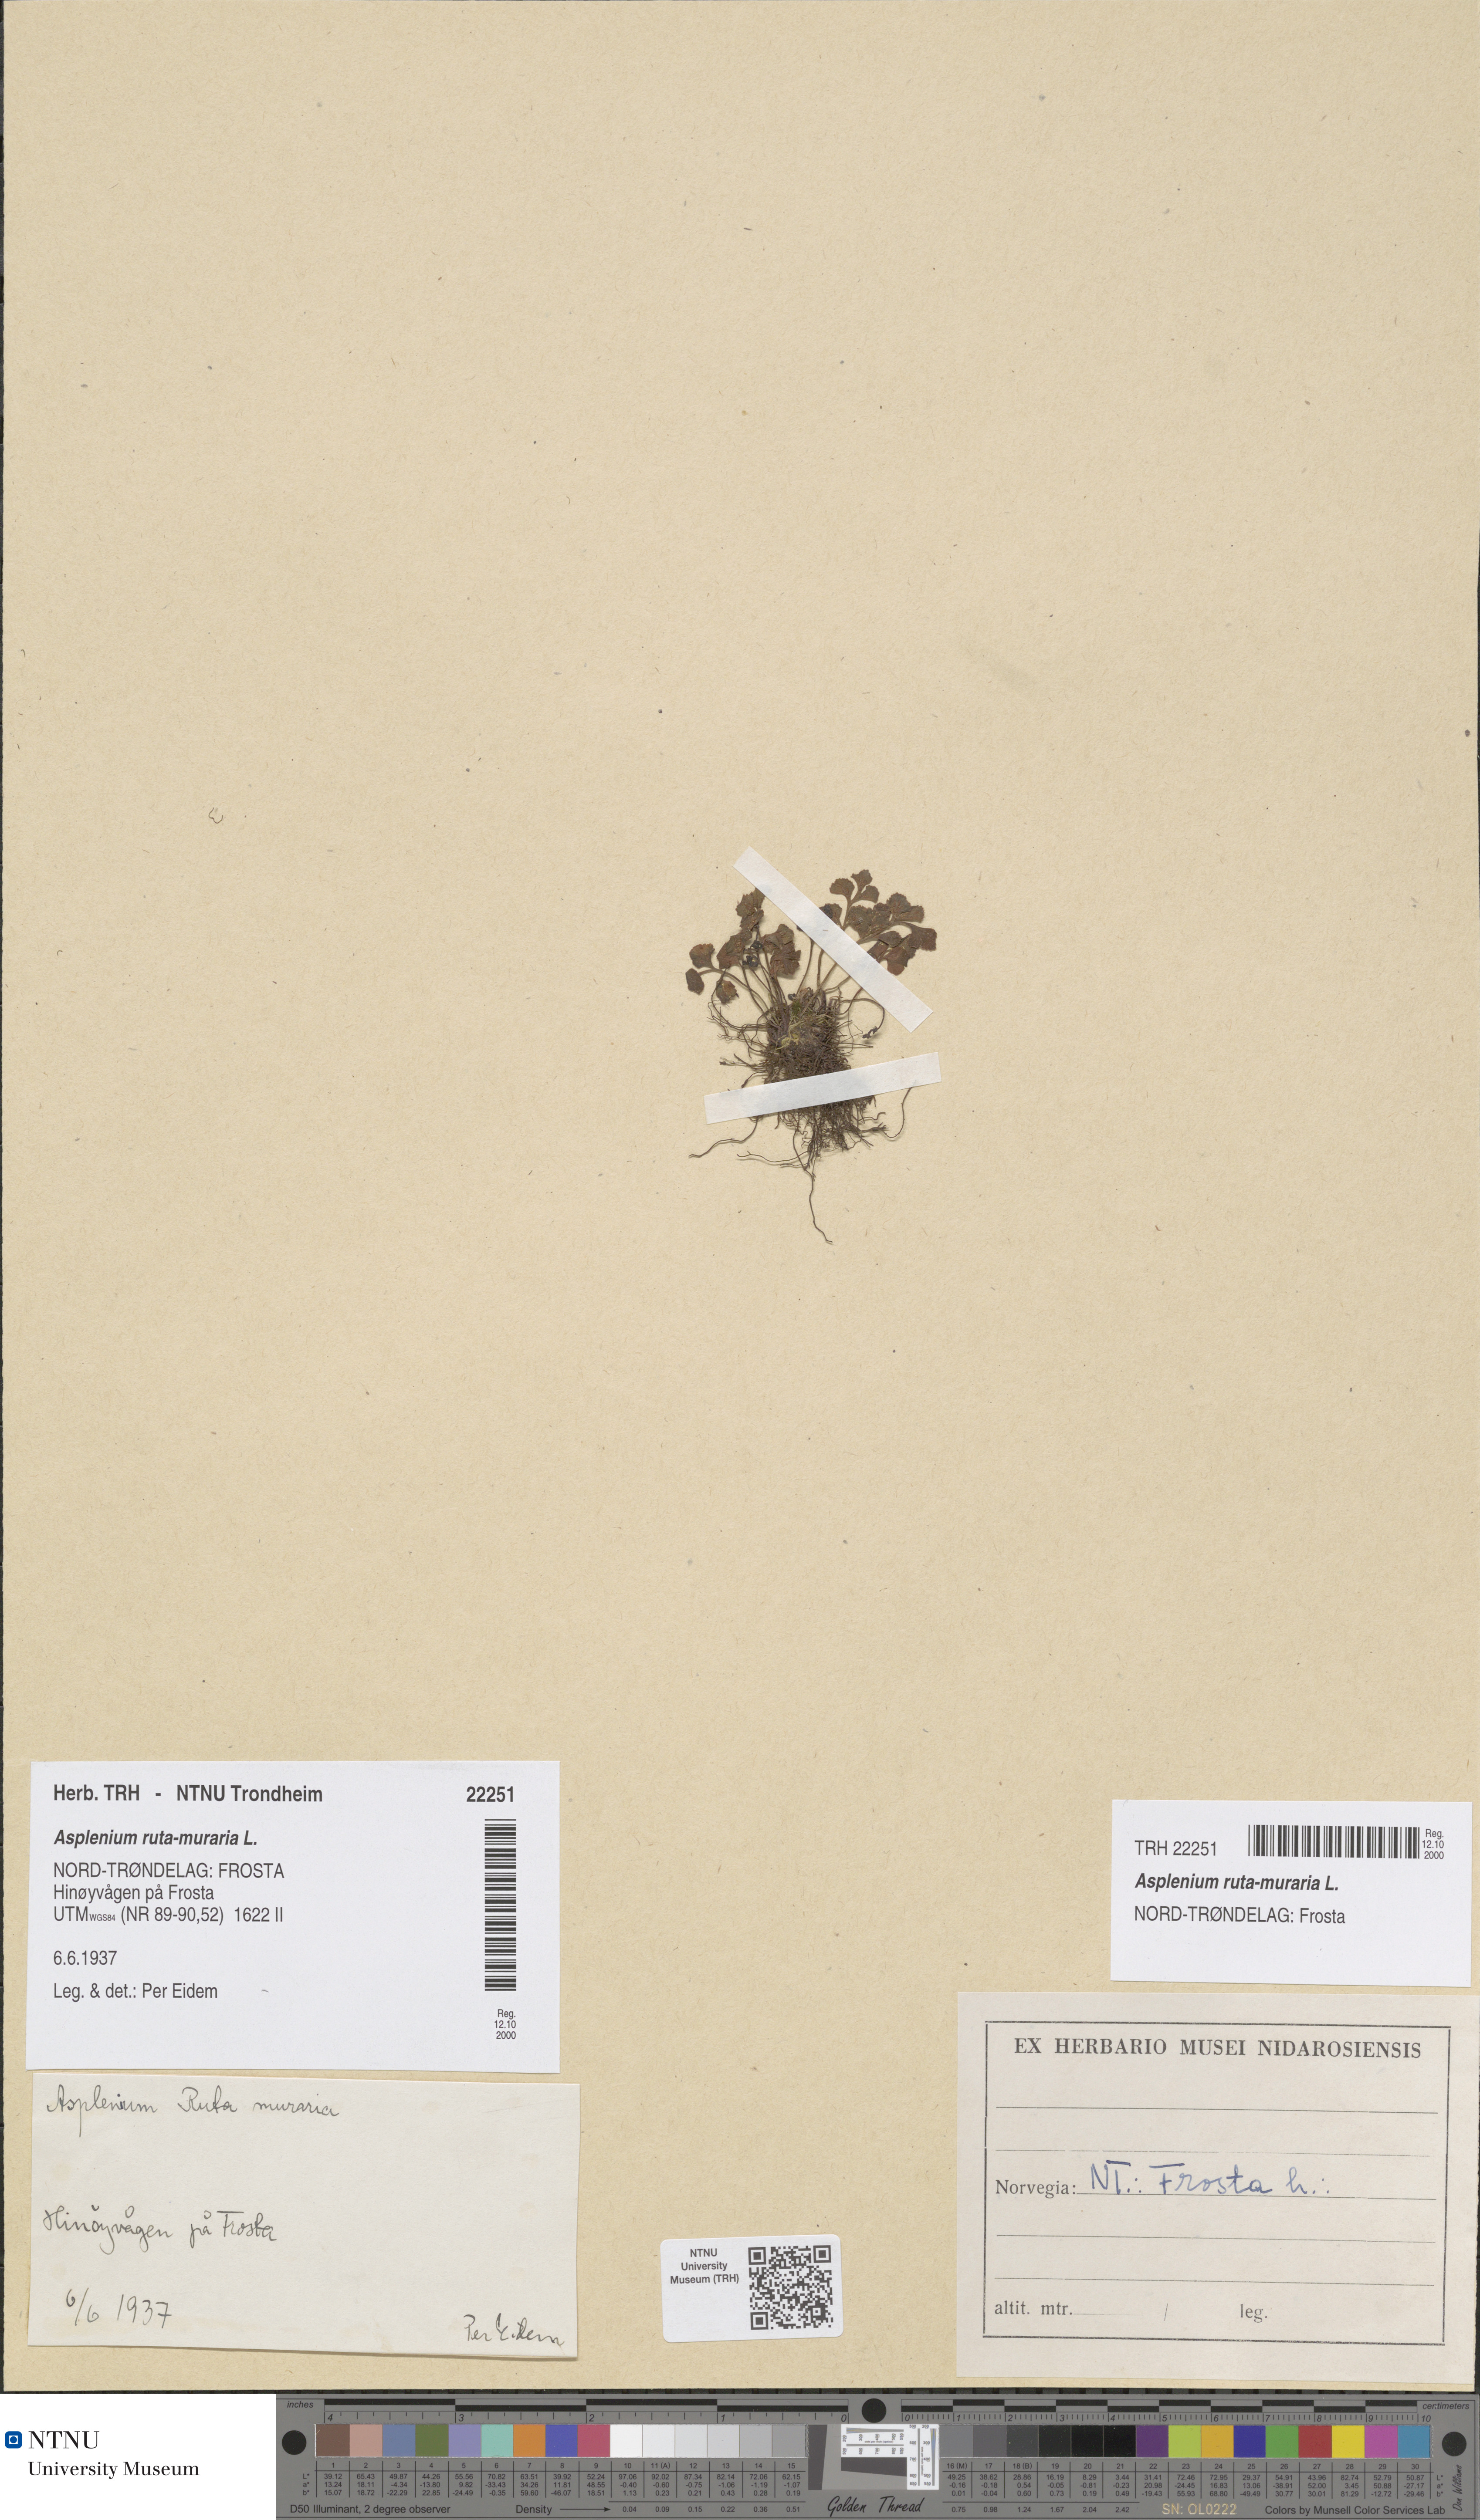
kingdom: Plantae
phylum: Tracheophyta
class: Polypodiopsida
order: Polypodiales
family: Aspleniaceae
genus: Asplenium
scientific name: Asplenium ruta-muraria
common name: Wall-rue
